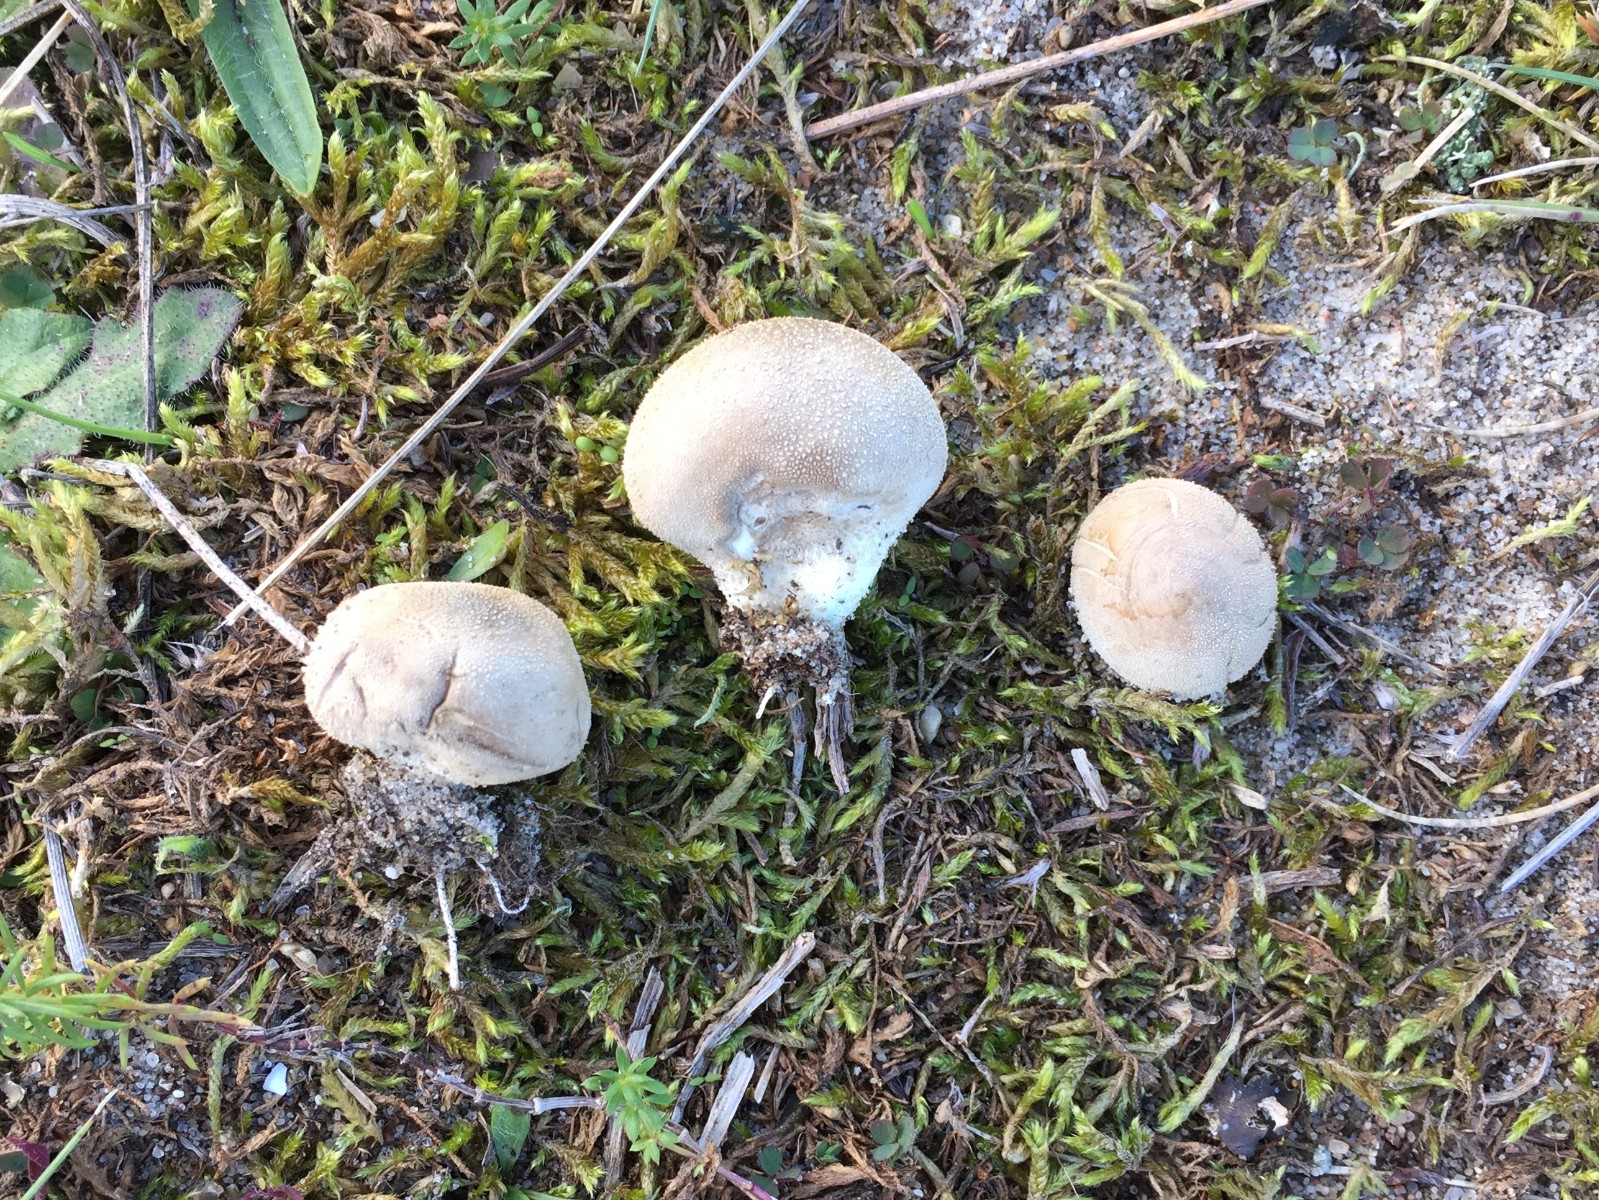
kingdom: Fungi
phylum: Basidiomycota
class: Agaricomycetes
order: Agaricales
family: Lycoperdaceae
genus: Lycoperdon
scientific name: Lycoperdon lividum
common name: mark-støvbold
